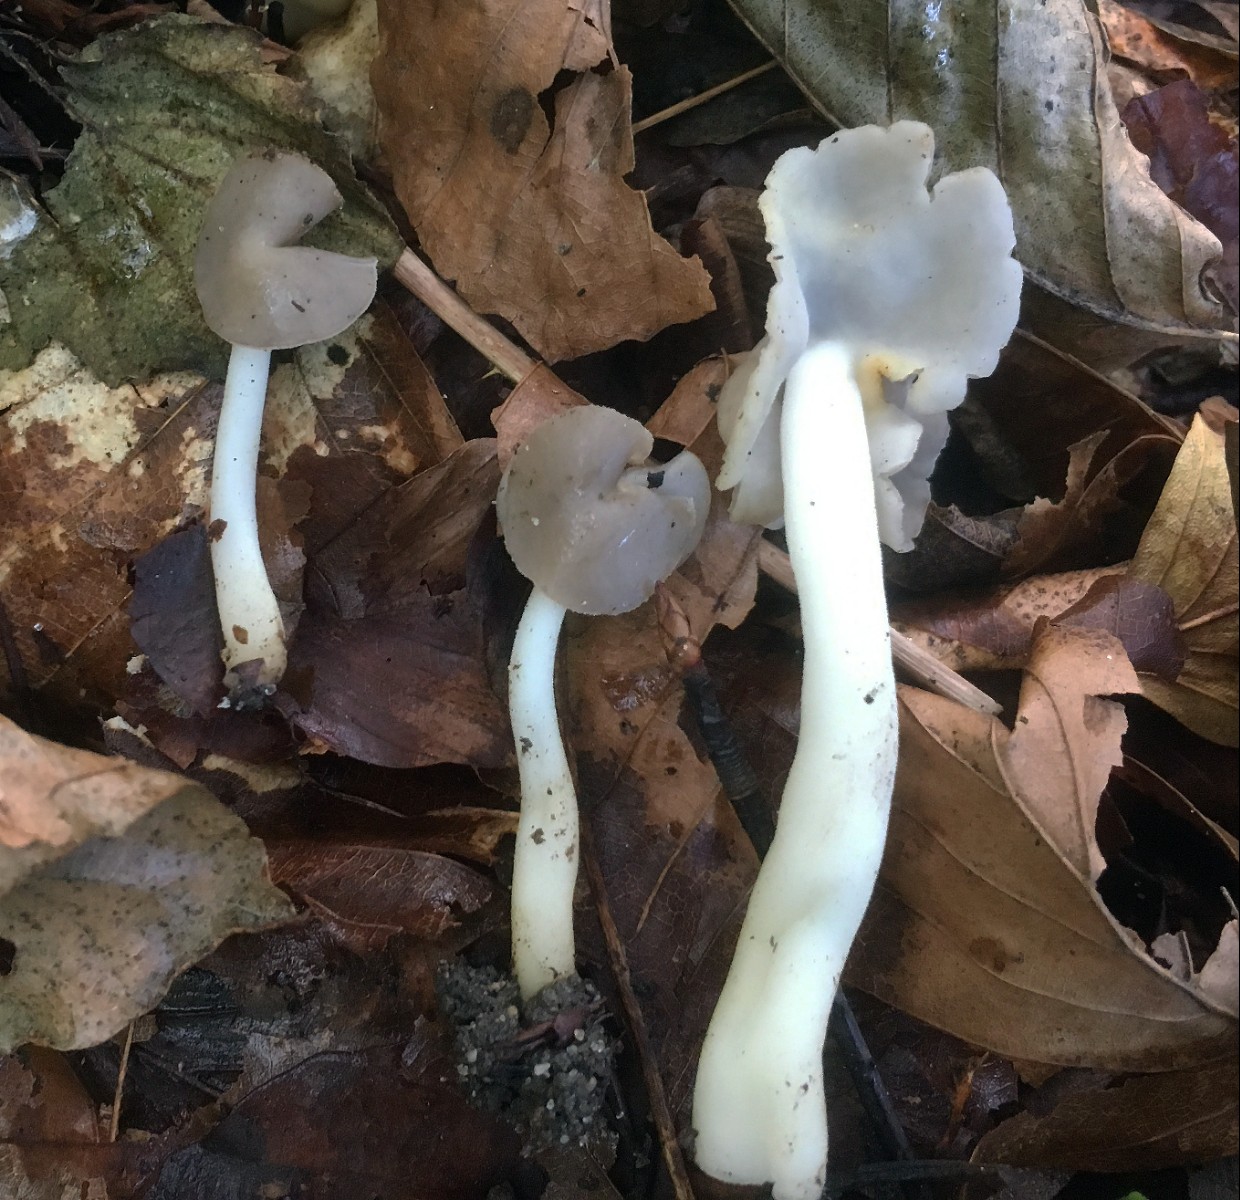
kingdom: Fungi
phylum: Ascomycota
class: Pezizomycetes
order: Pezizales
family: Helvellaceae
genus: Helvella
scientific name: Helvella levis
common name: bredsporet foldhat
